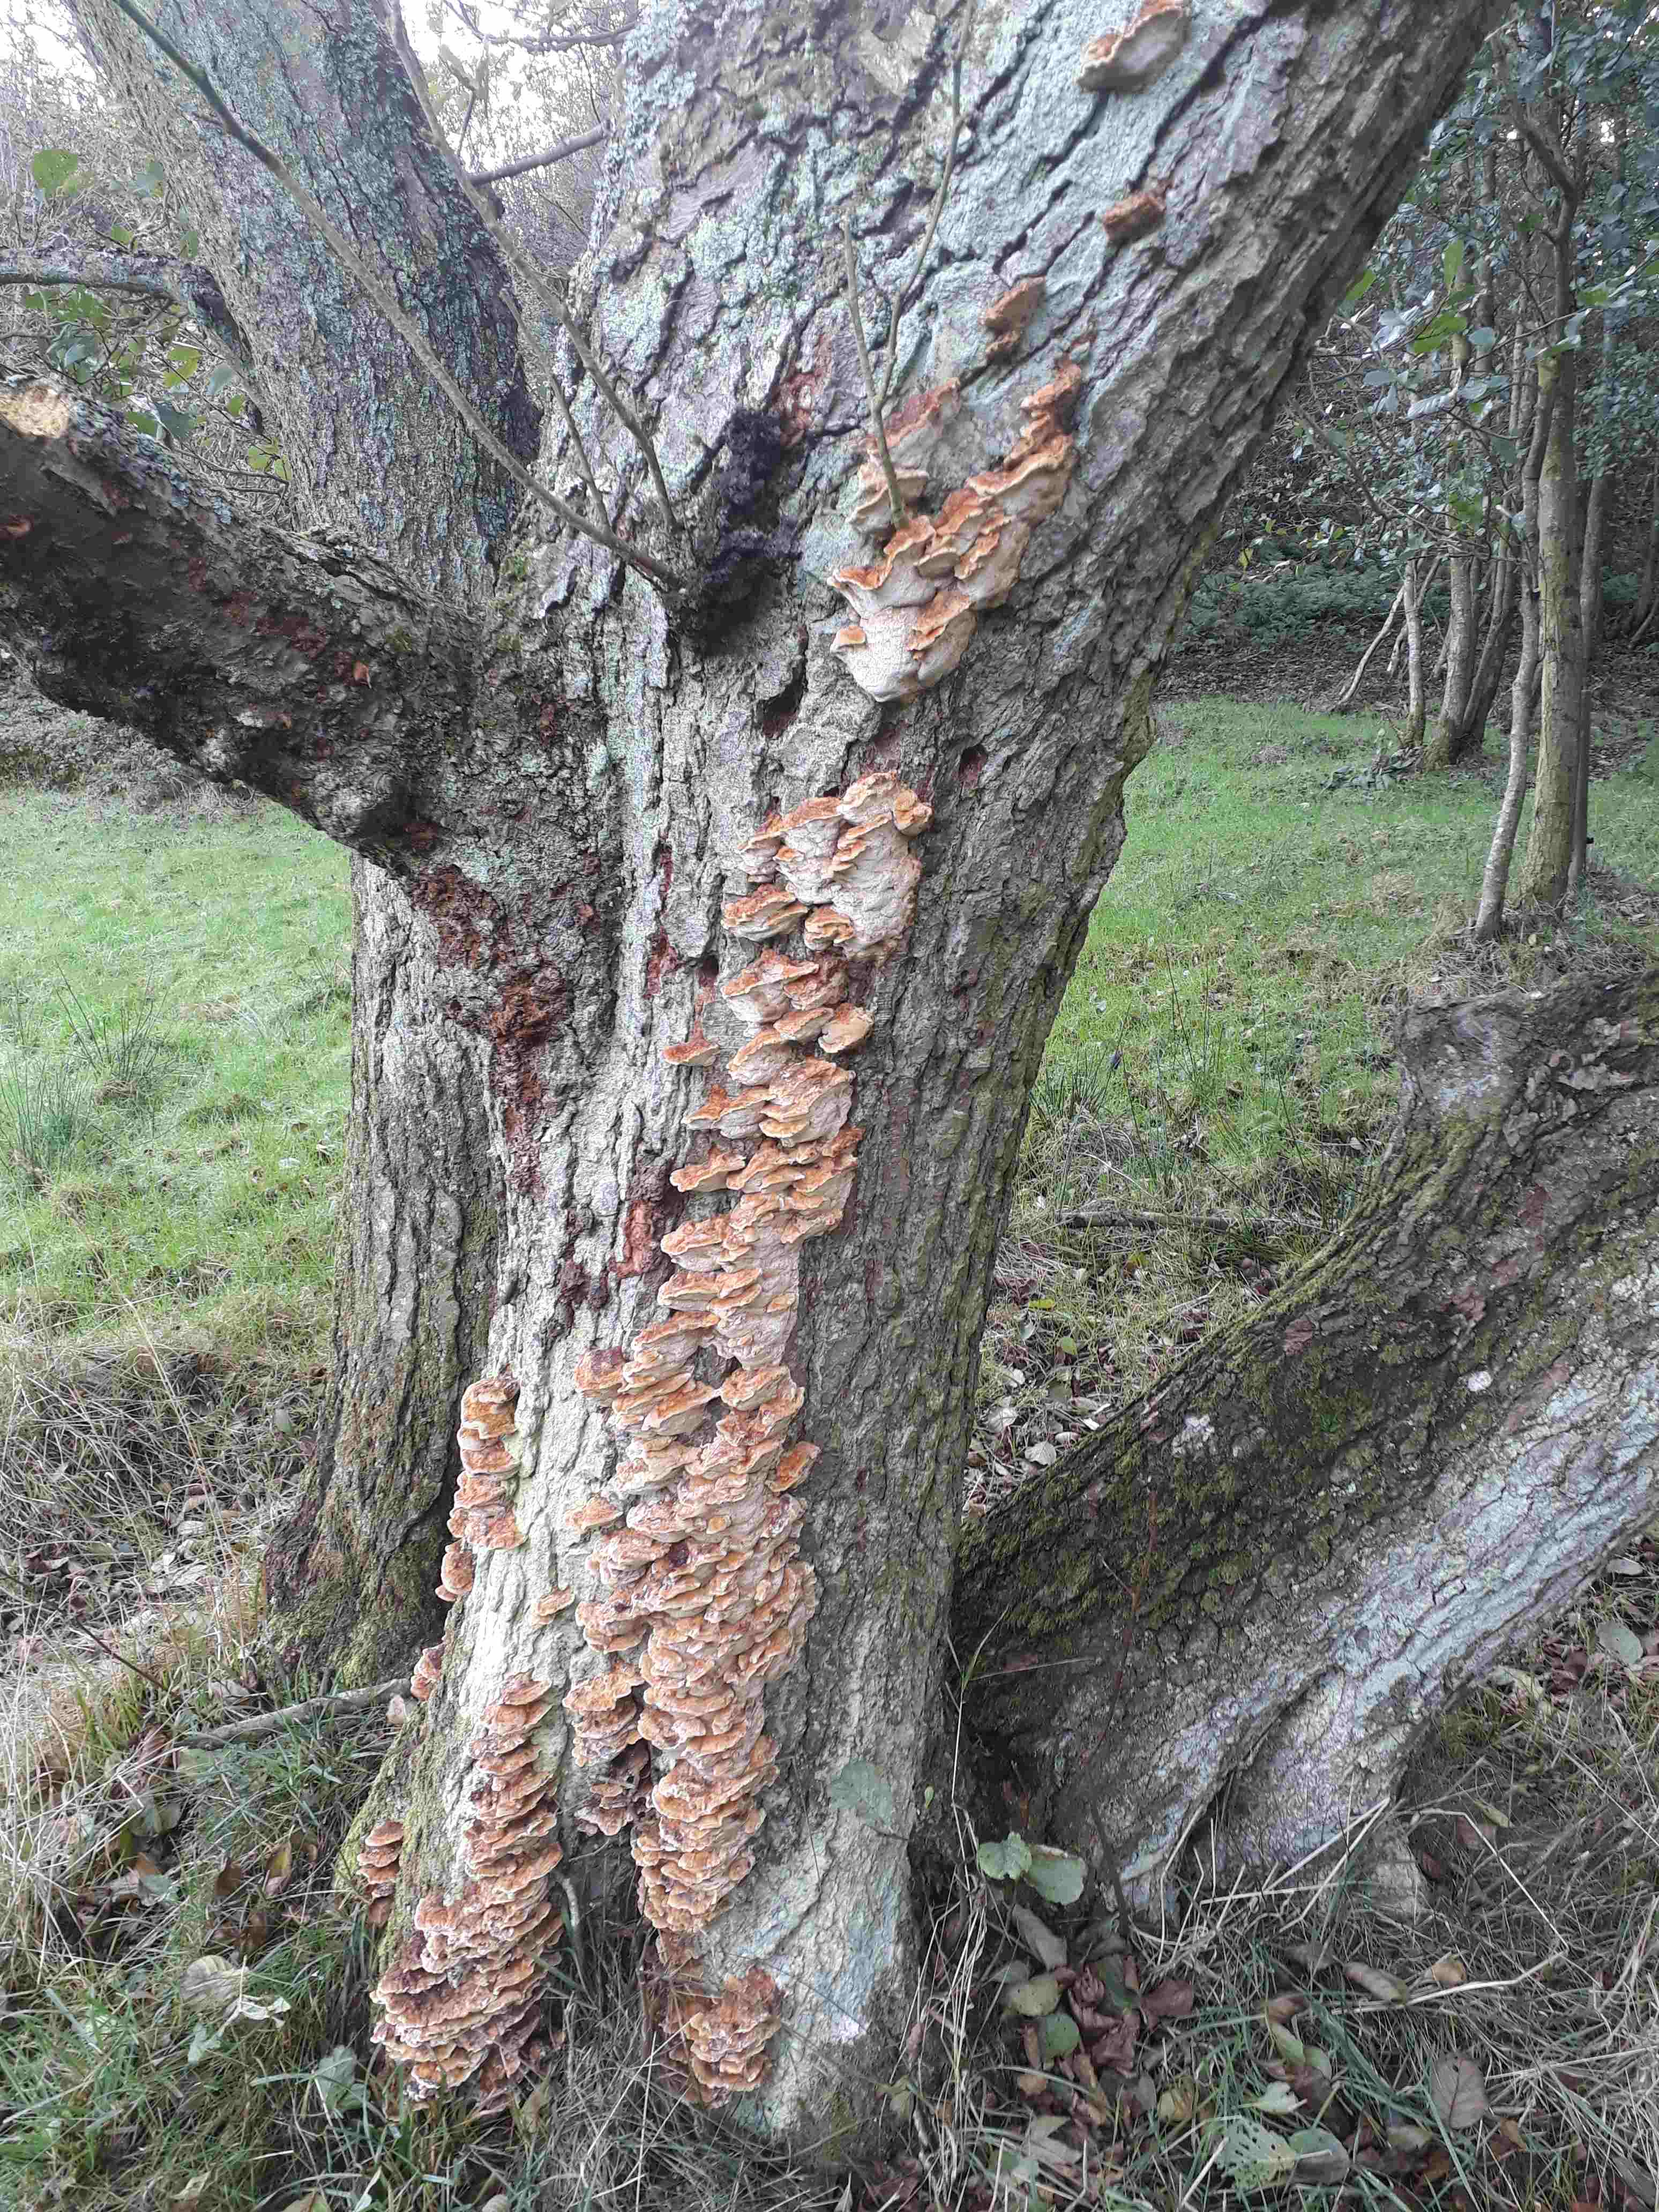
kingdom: Fungi
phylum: Basidiomycota
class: Agaricomycetes
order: Hymenochaetales
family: Hymenochaetaceae
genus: Xanthoporia
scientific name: Xanthoporia radiata
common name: elle-spejlporesvamp
